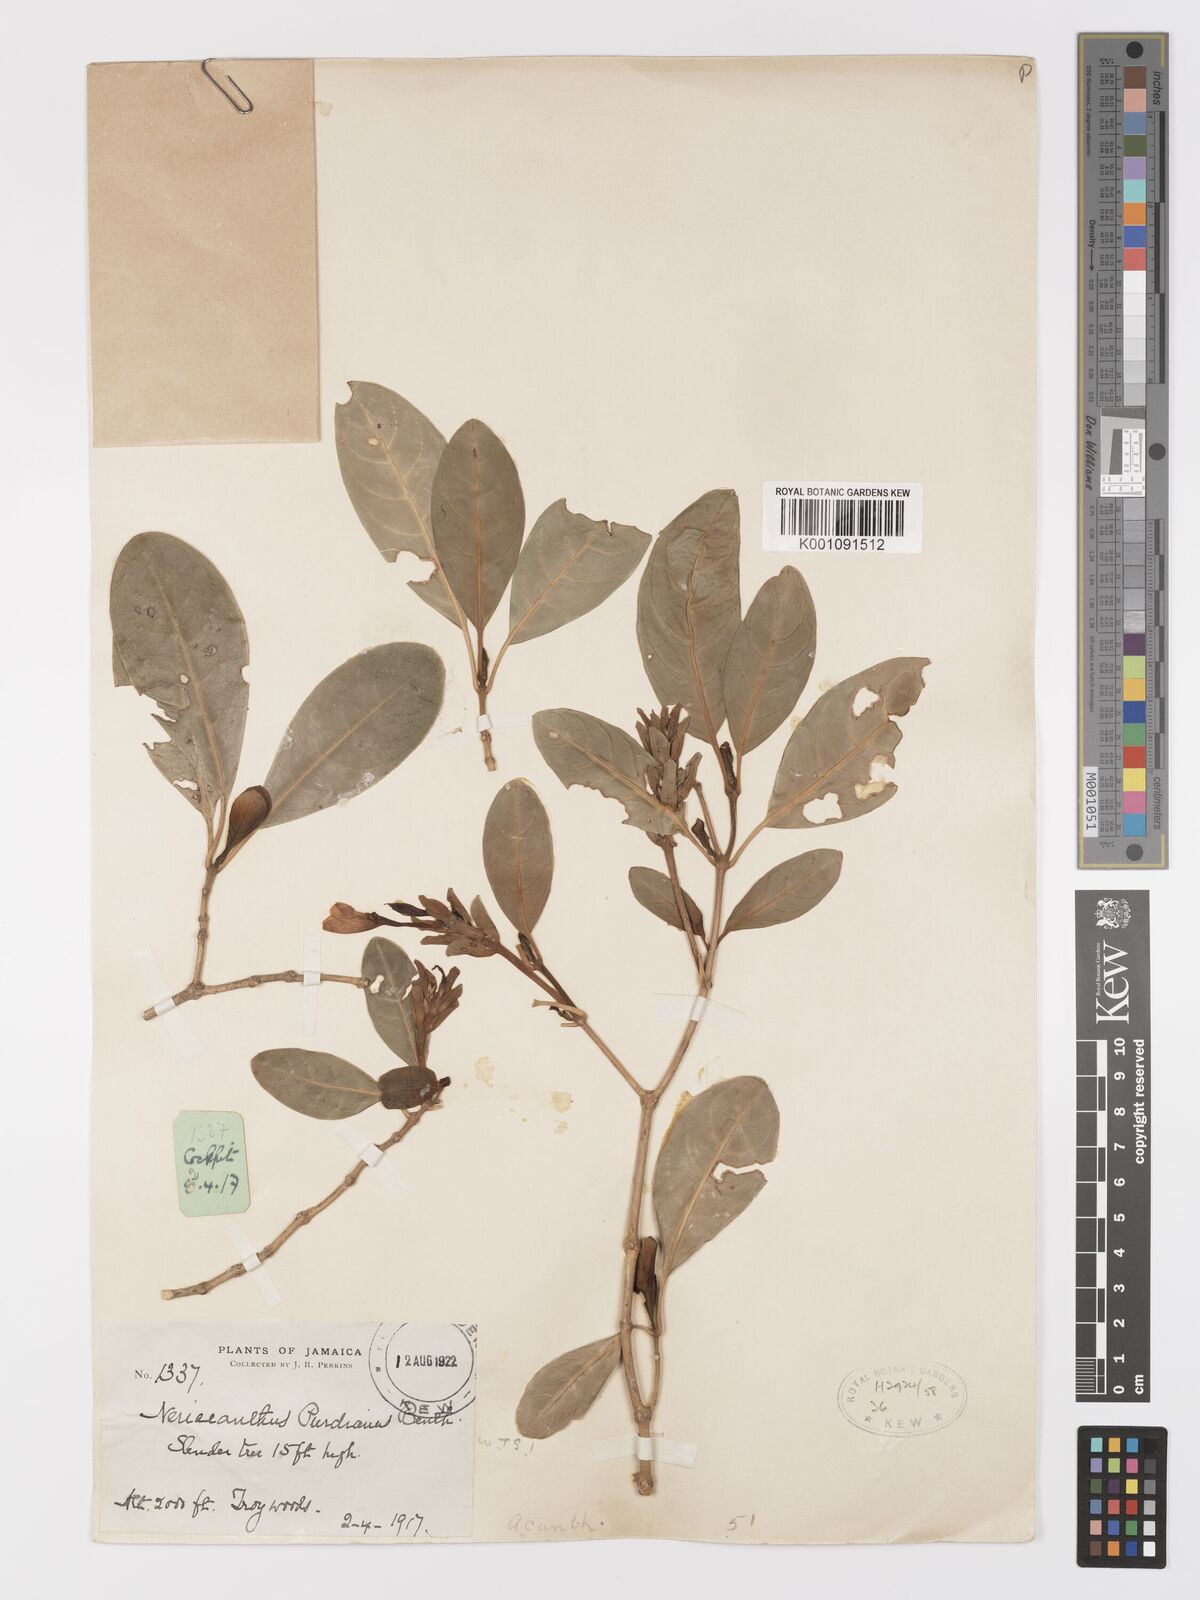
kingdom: Plantae
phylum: Tracheophyta
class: Magnoliopsida
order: Lamiales
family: Acanthaceae
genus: Neriacanthus
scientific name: Neriacanthus purdieanus
